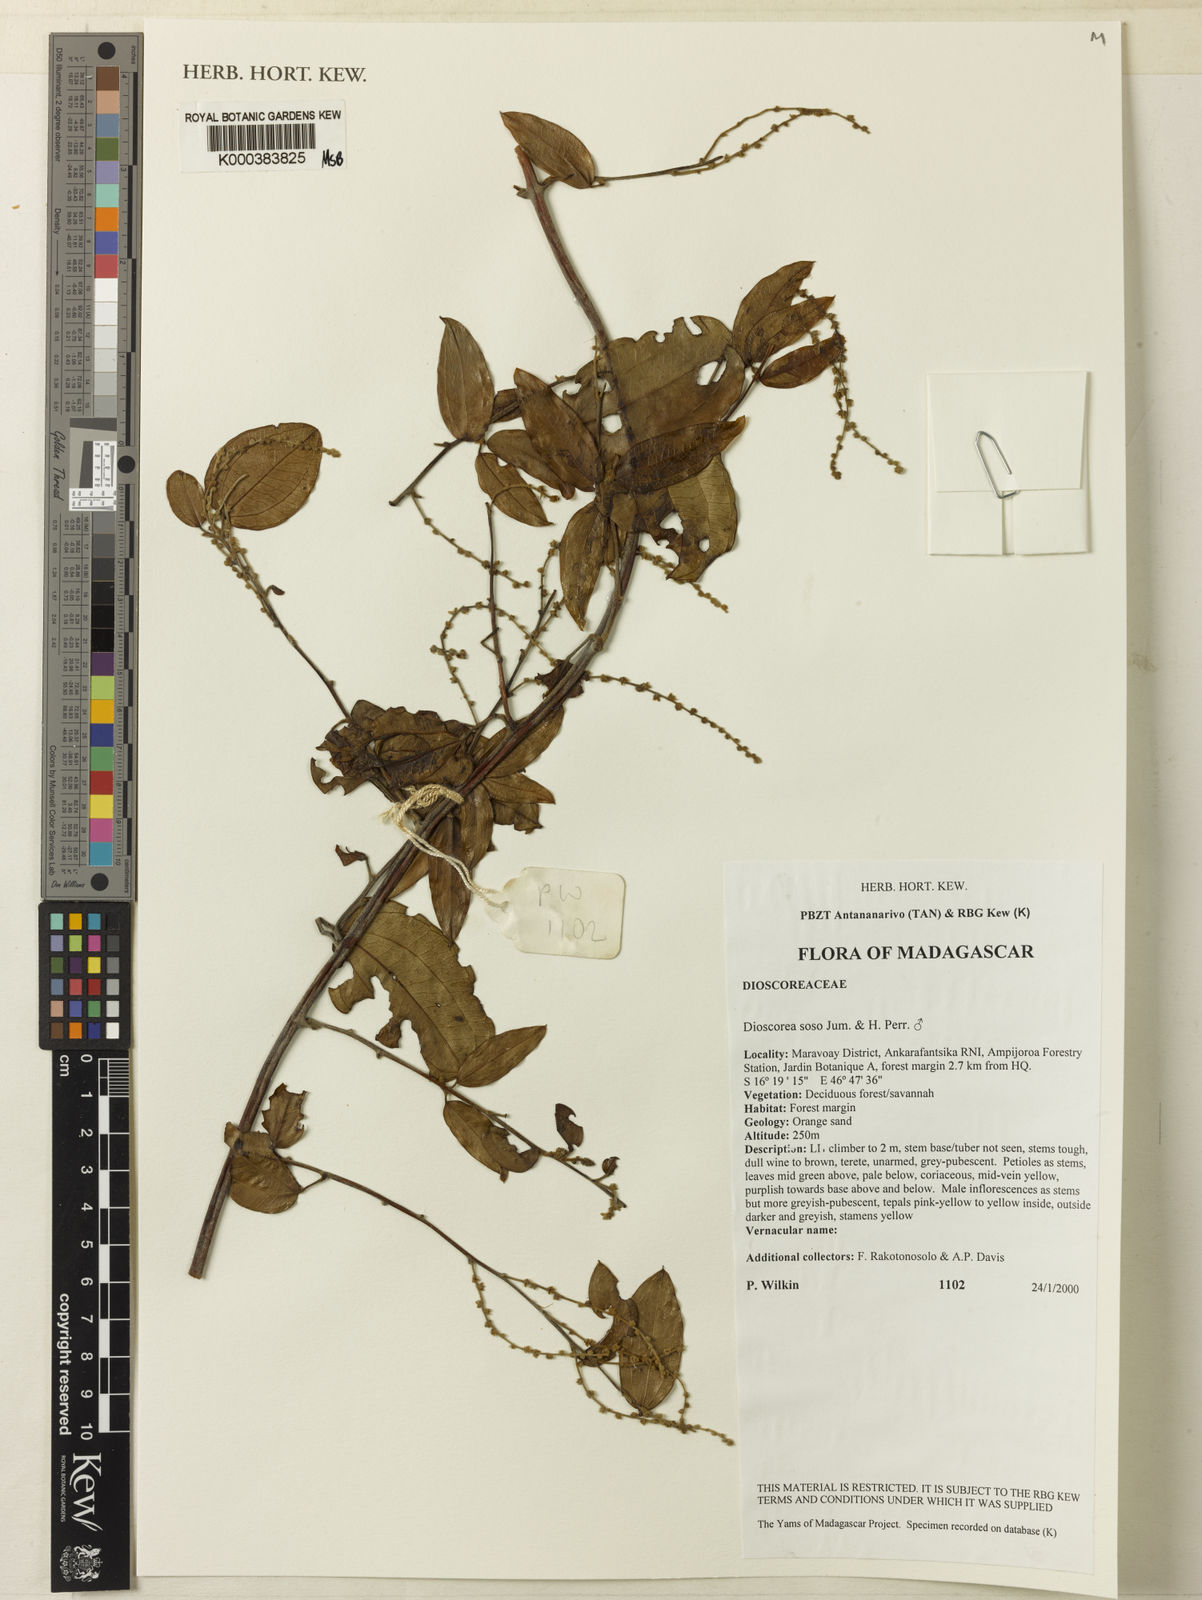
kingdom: Plantae
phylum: Tracheophyta
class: Liliopsida
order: Dioscoreales
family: Dioscoreaceae
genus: Dioscorea
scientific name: Dioscorea
